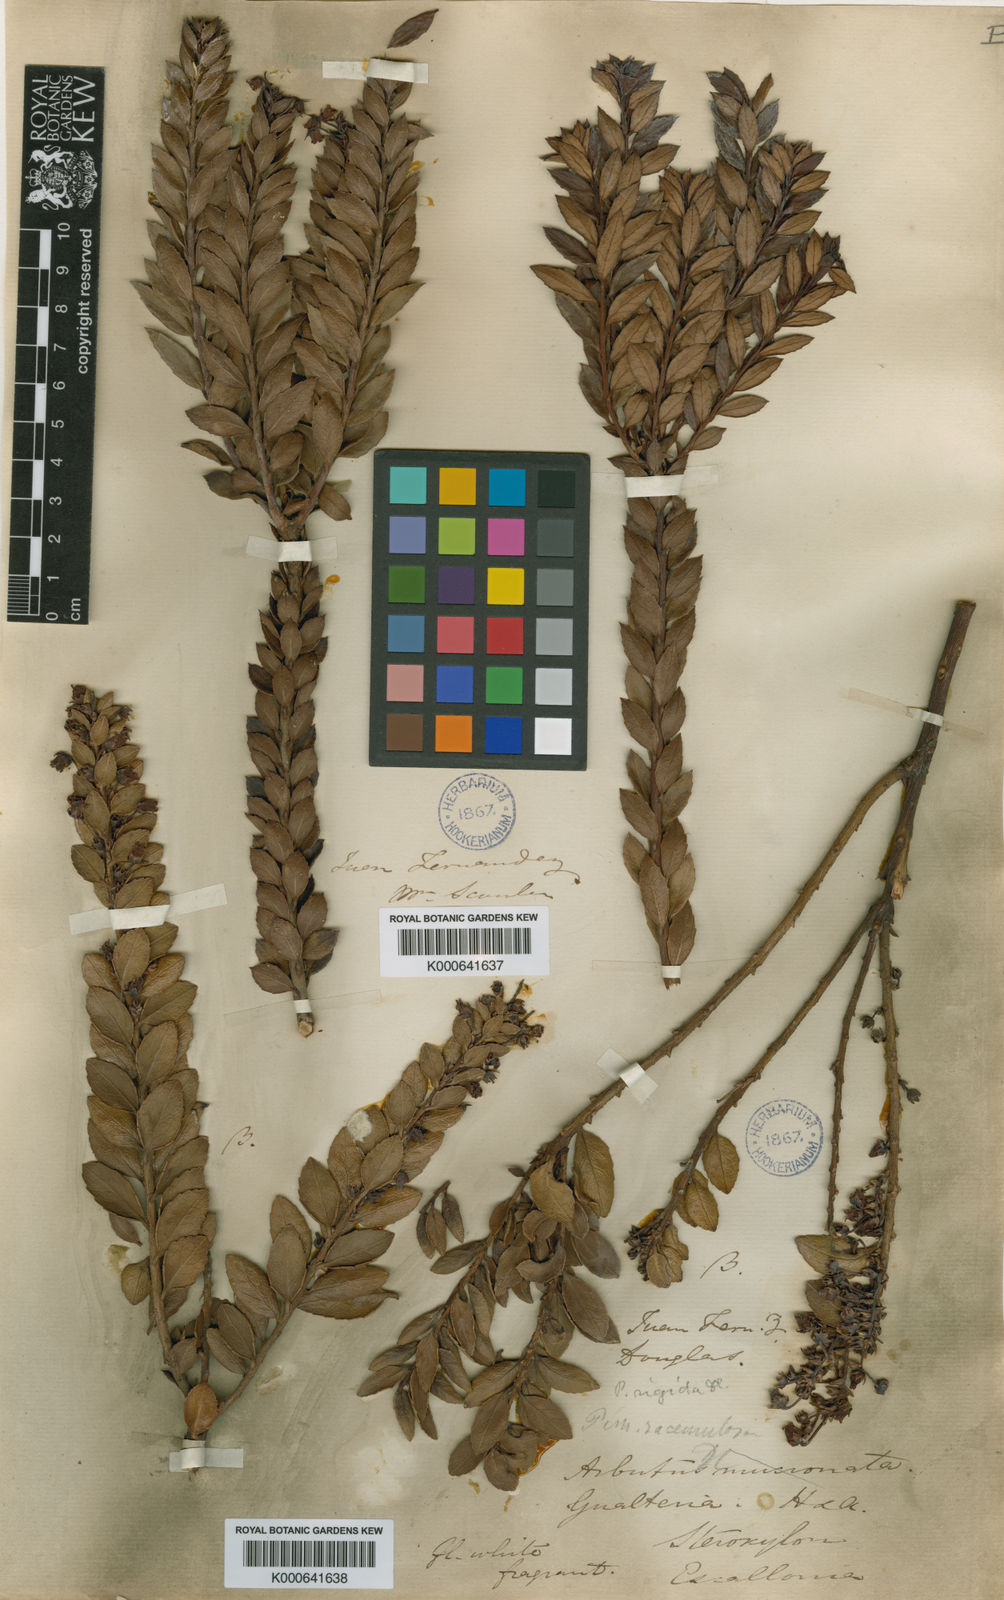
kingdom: Plantae
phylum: Tracheophyta
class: Magnoliopsida
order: Ericales
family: Ericaceae
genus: Gaultheria
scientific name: Gaultheria racemulosa
